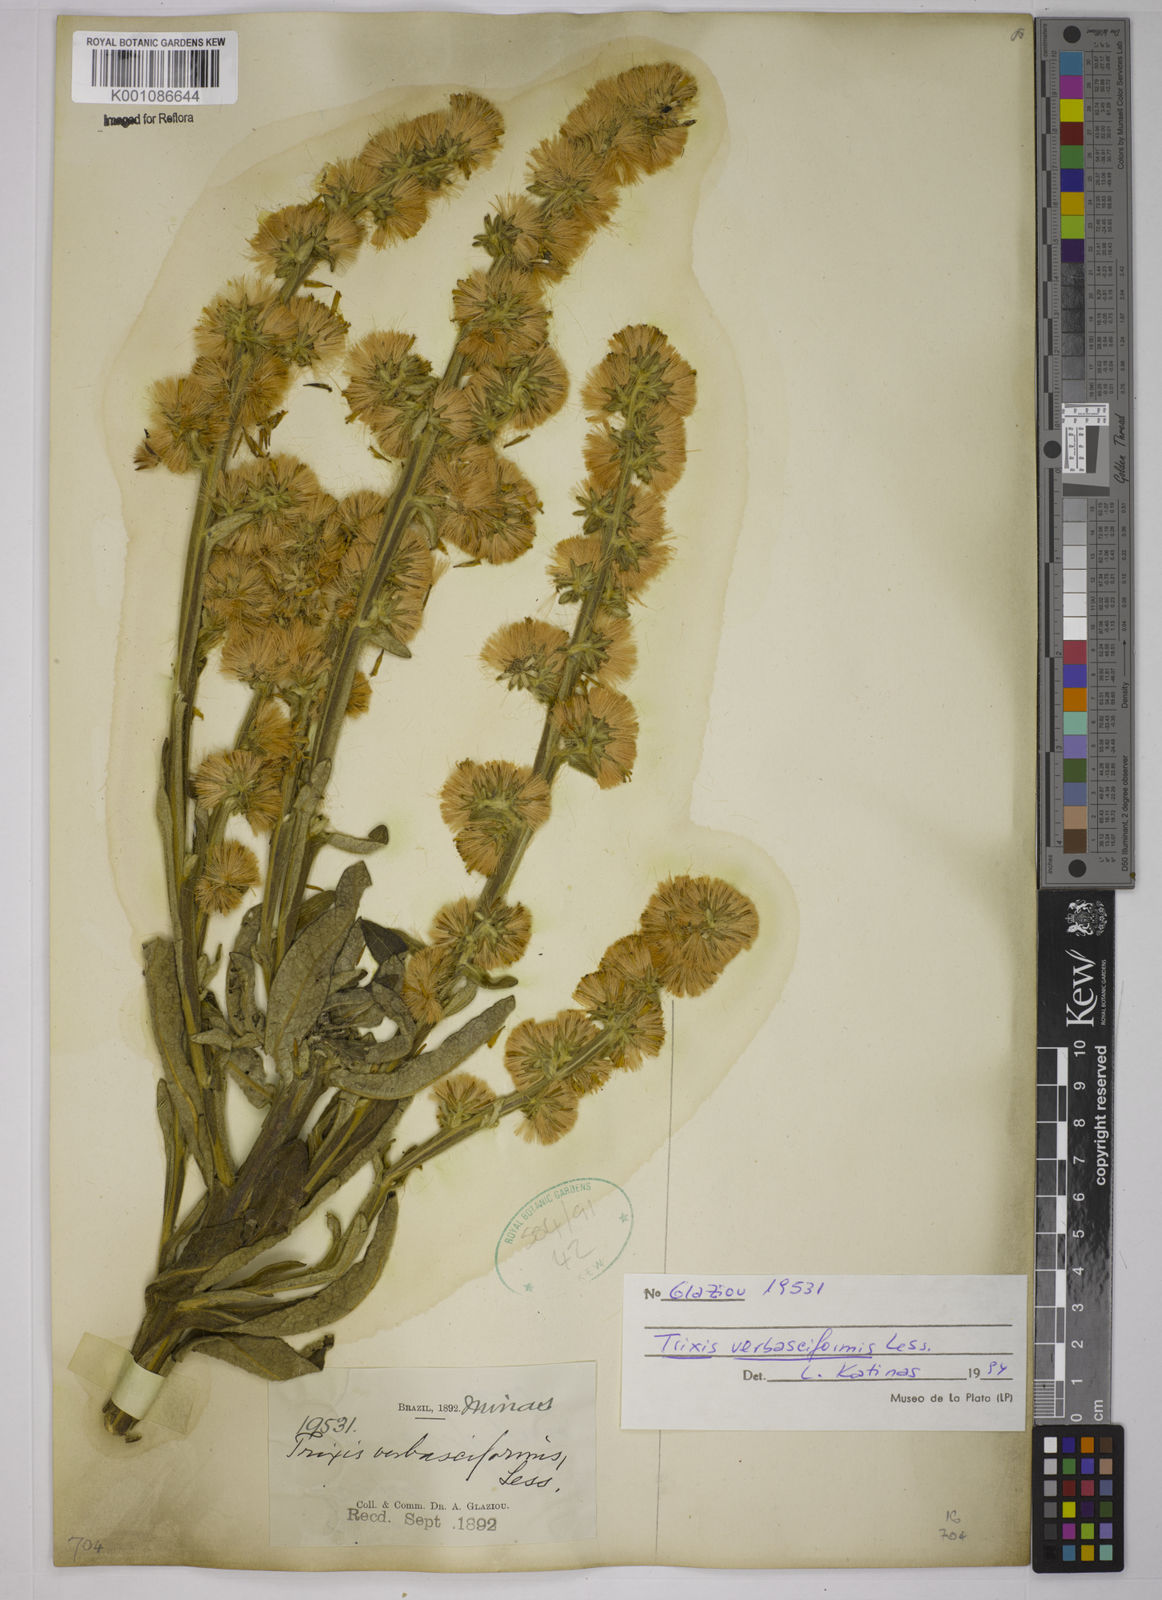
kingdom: Plantae
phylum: Tracheophyta
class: Magnoliopsida
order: Asterales
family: Asteraceae
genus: Trixis
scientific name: Trixis nobilis
